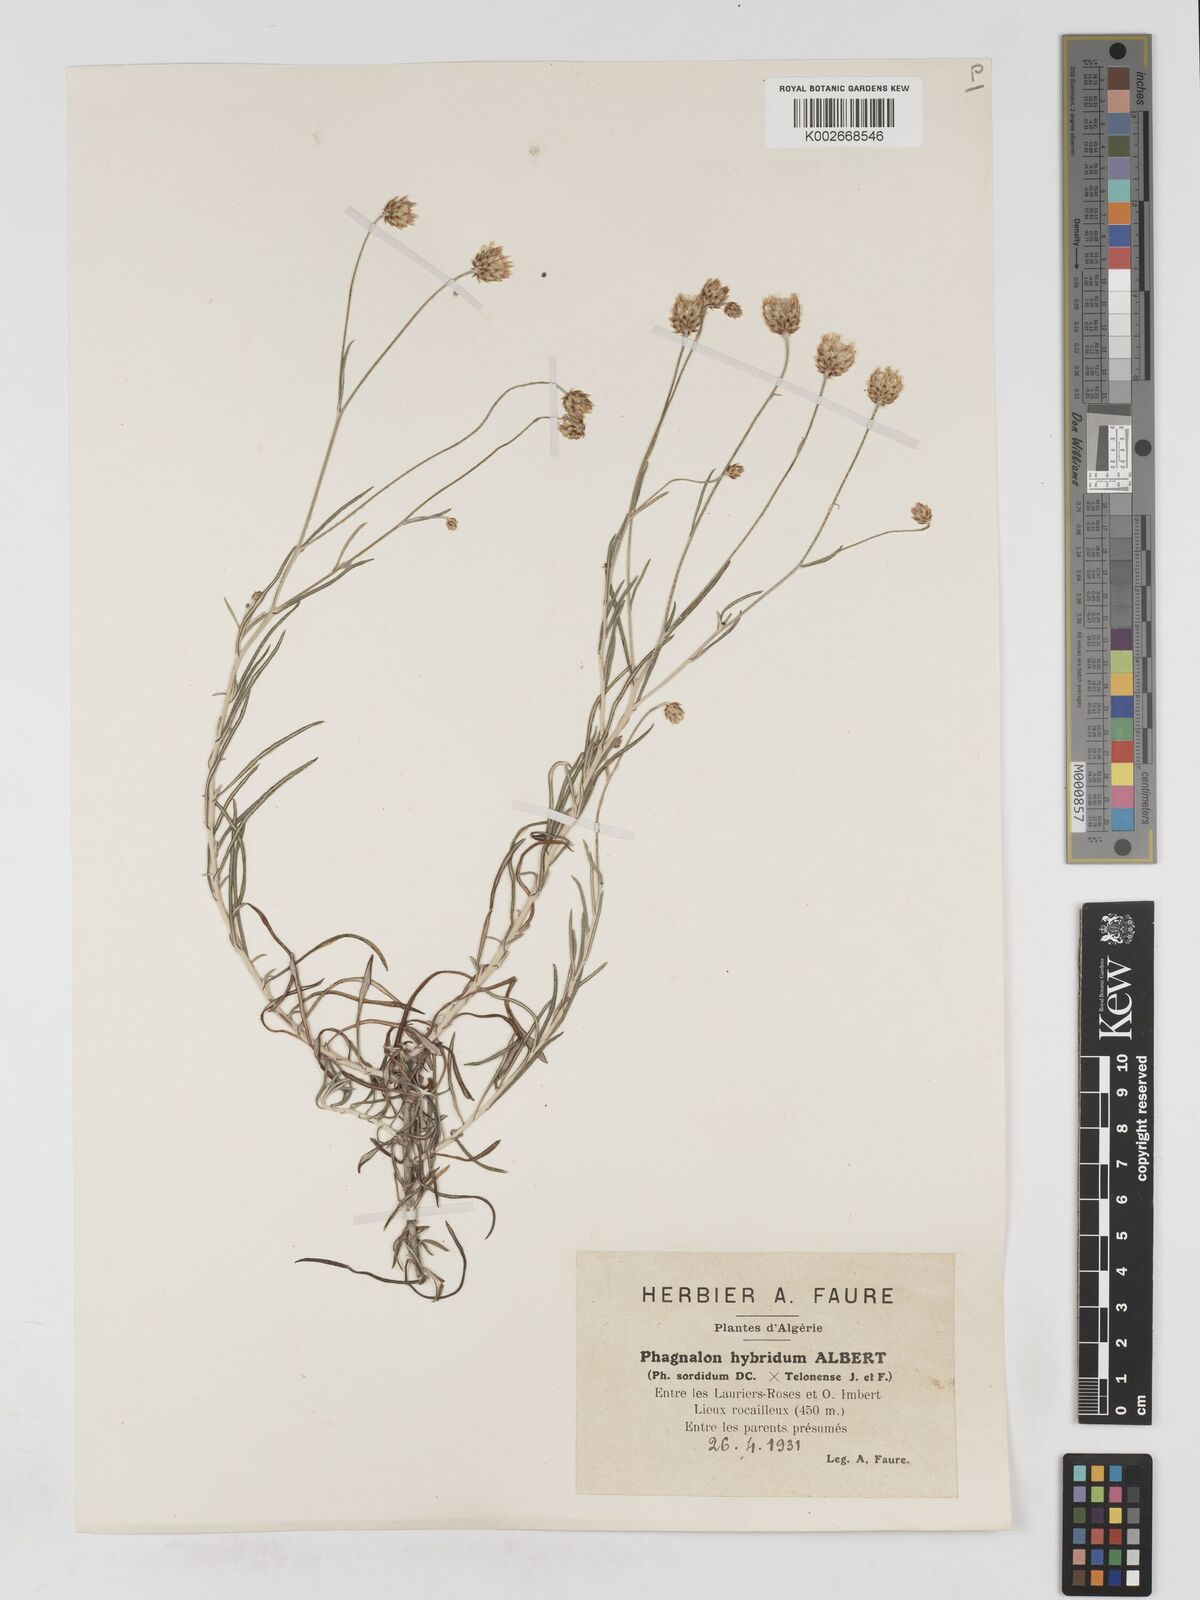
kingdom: Plantae
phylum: Tracheophyta
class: Magnoliopsida
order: Asterales
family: Asteraceae
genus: Phagnalon
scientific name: Phagnalon hybridum
